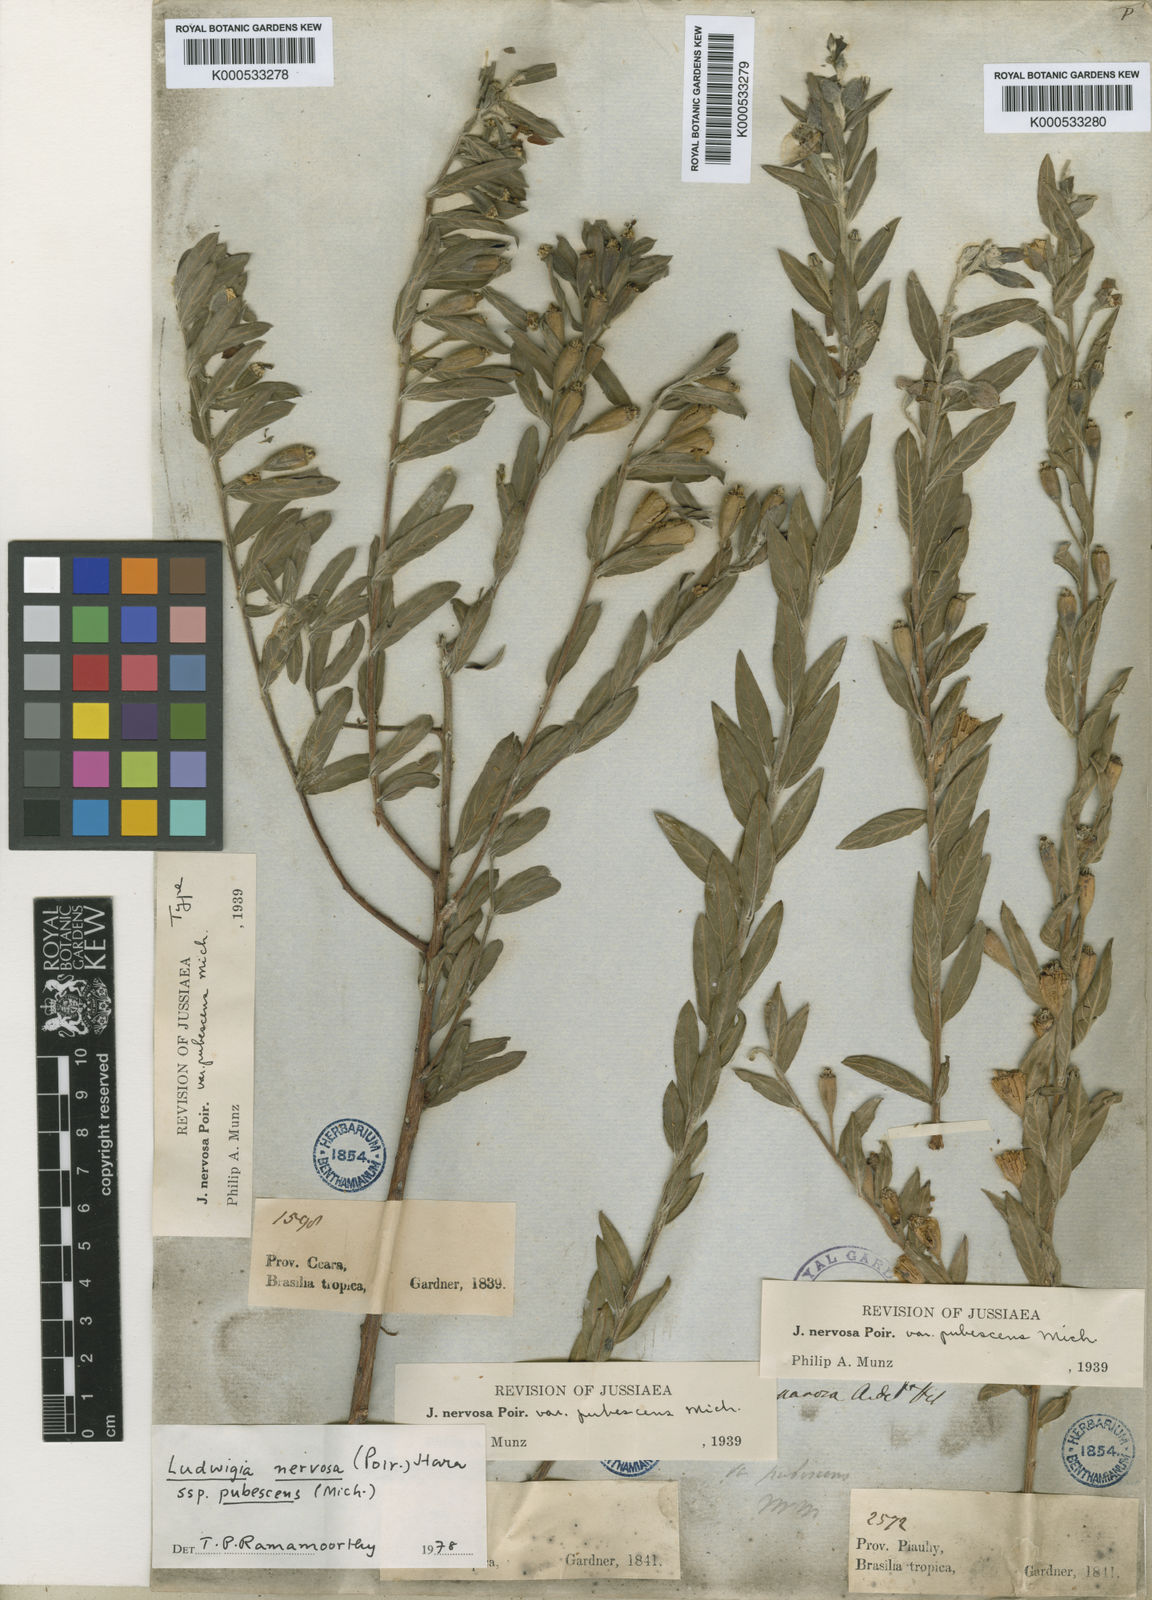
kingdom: Plantae
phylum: Tracheophyta
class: Magnoliopsida
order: Myrtales
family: Onagraceae
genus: Ludwigia
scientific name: Ludwigia nervosa
